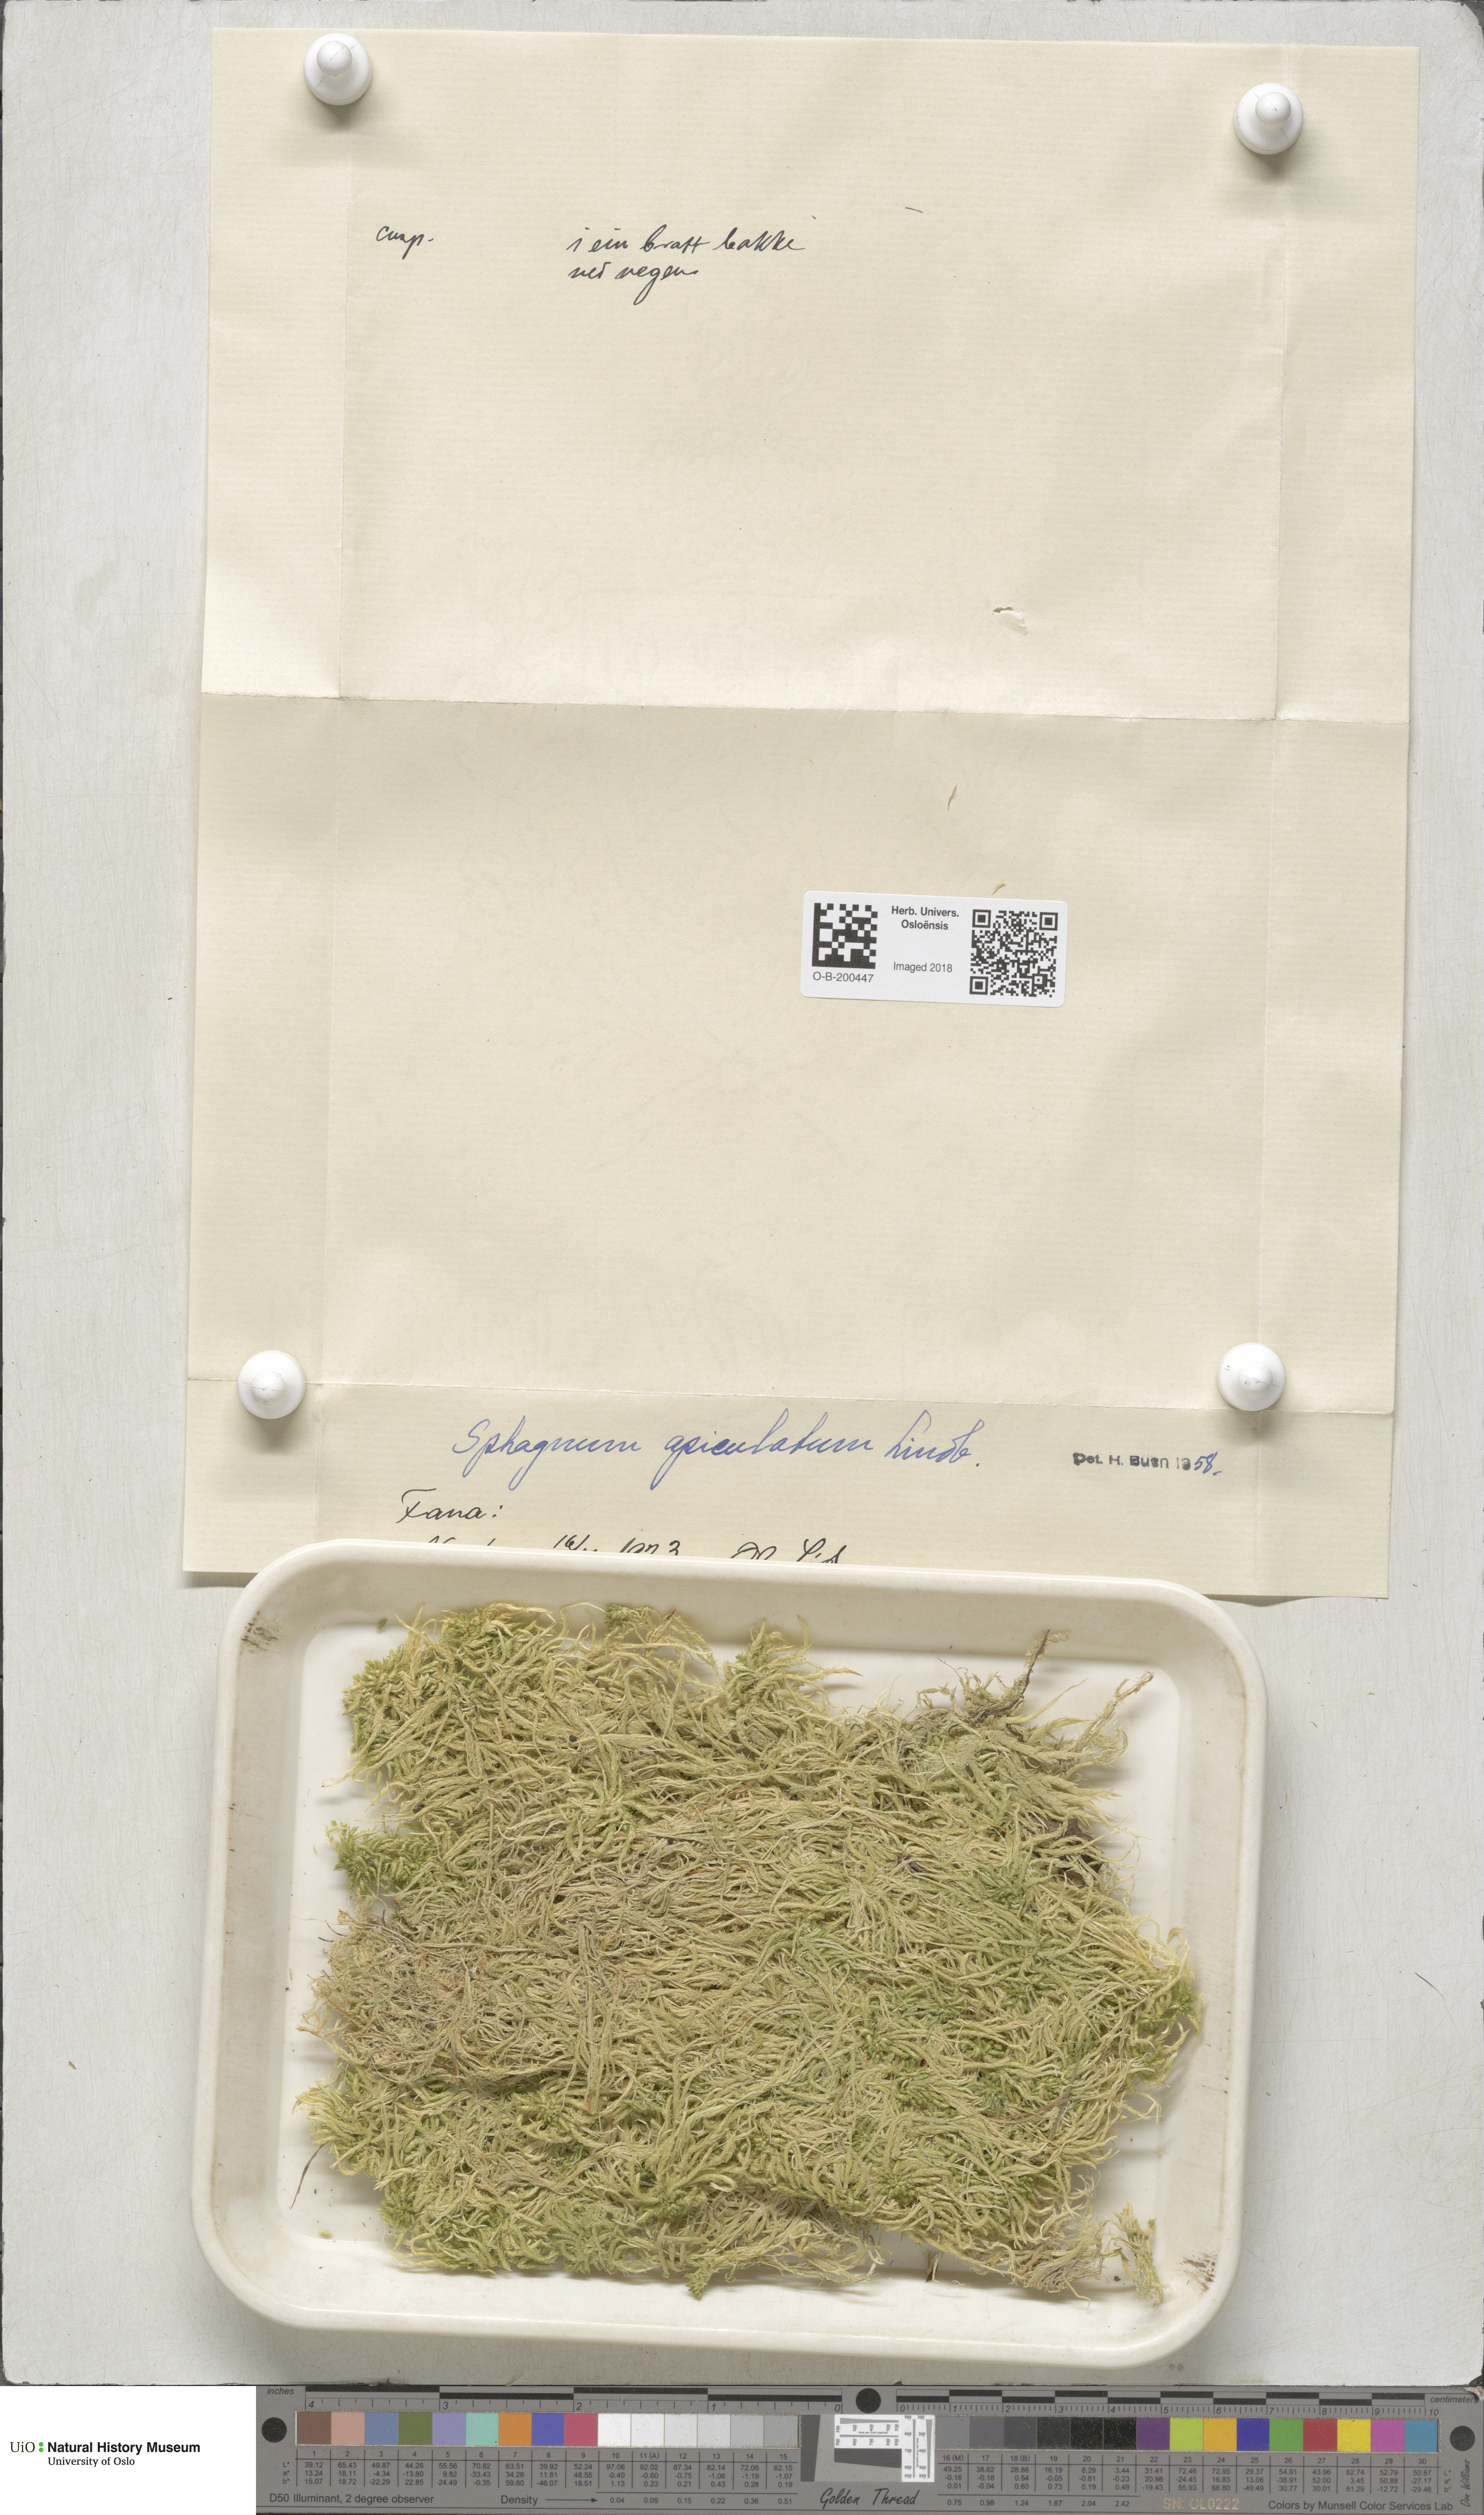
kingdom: Plantae
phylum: Bryophyta
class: Sphagnopsida
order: Sphagnales
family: Sphagnaceae
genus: Sphagnum
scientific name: Sphagnum fallax
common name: Flat-top peat moss
